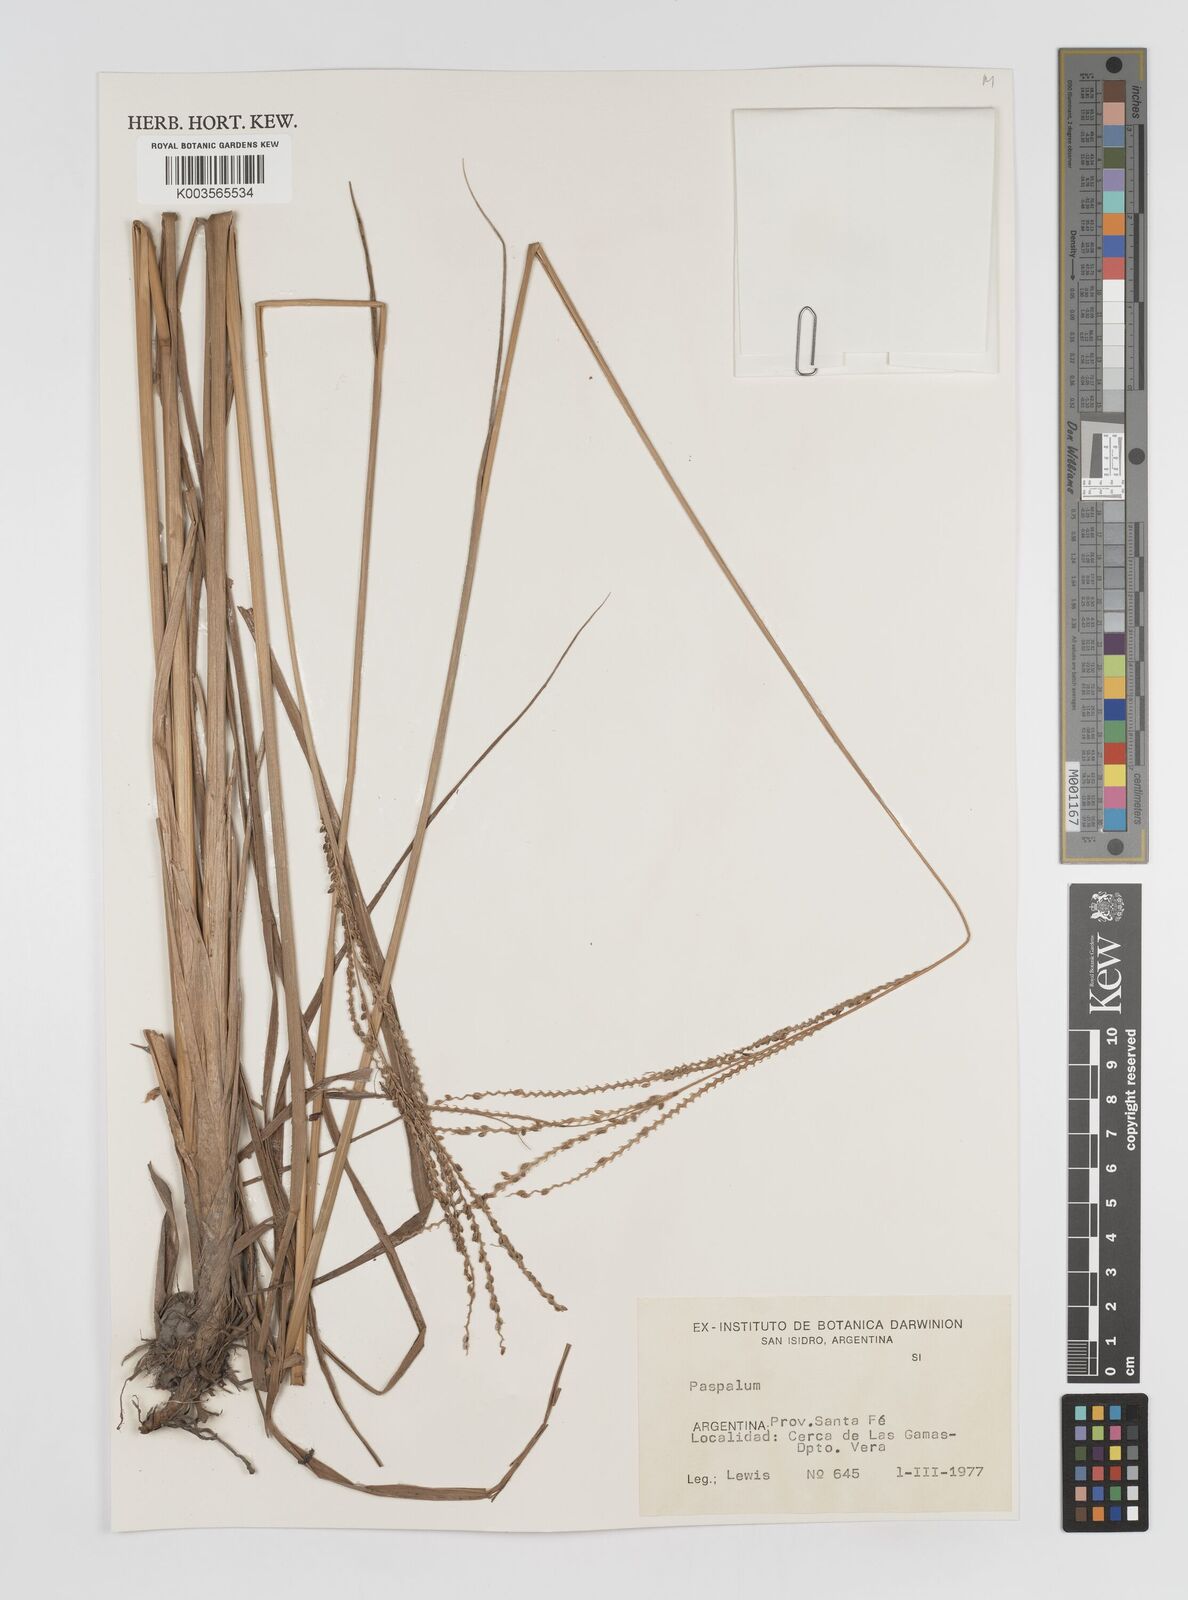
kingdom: Plantae
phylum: Tracheophyta
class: Liliopsida
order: Poales
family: Poaceae
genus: Paspalum
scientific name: Paspalum
